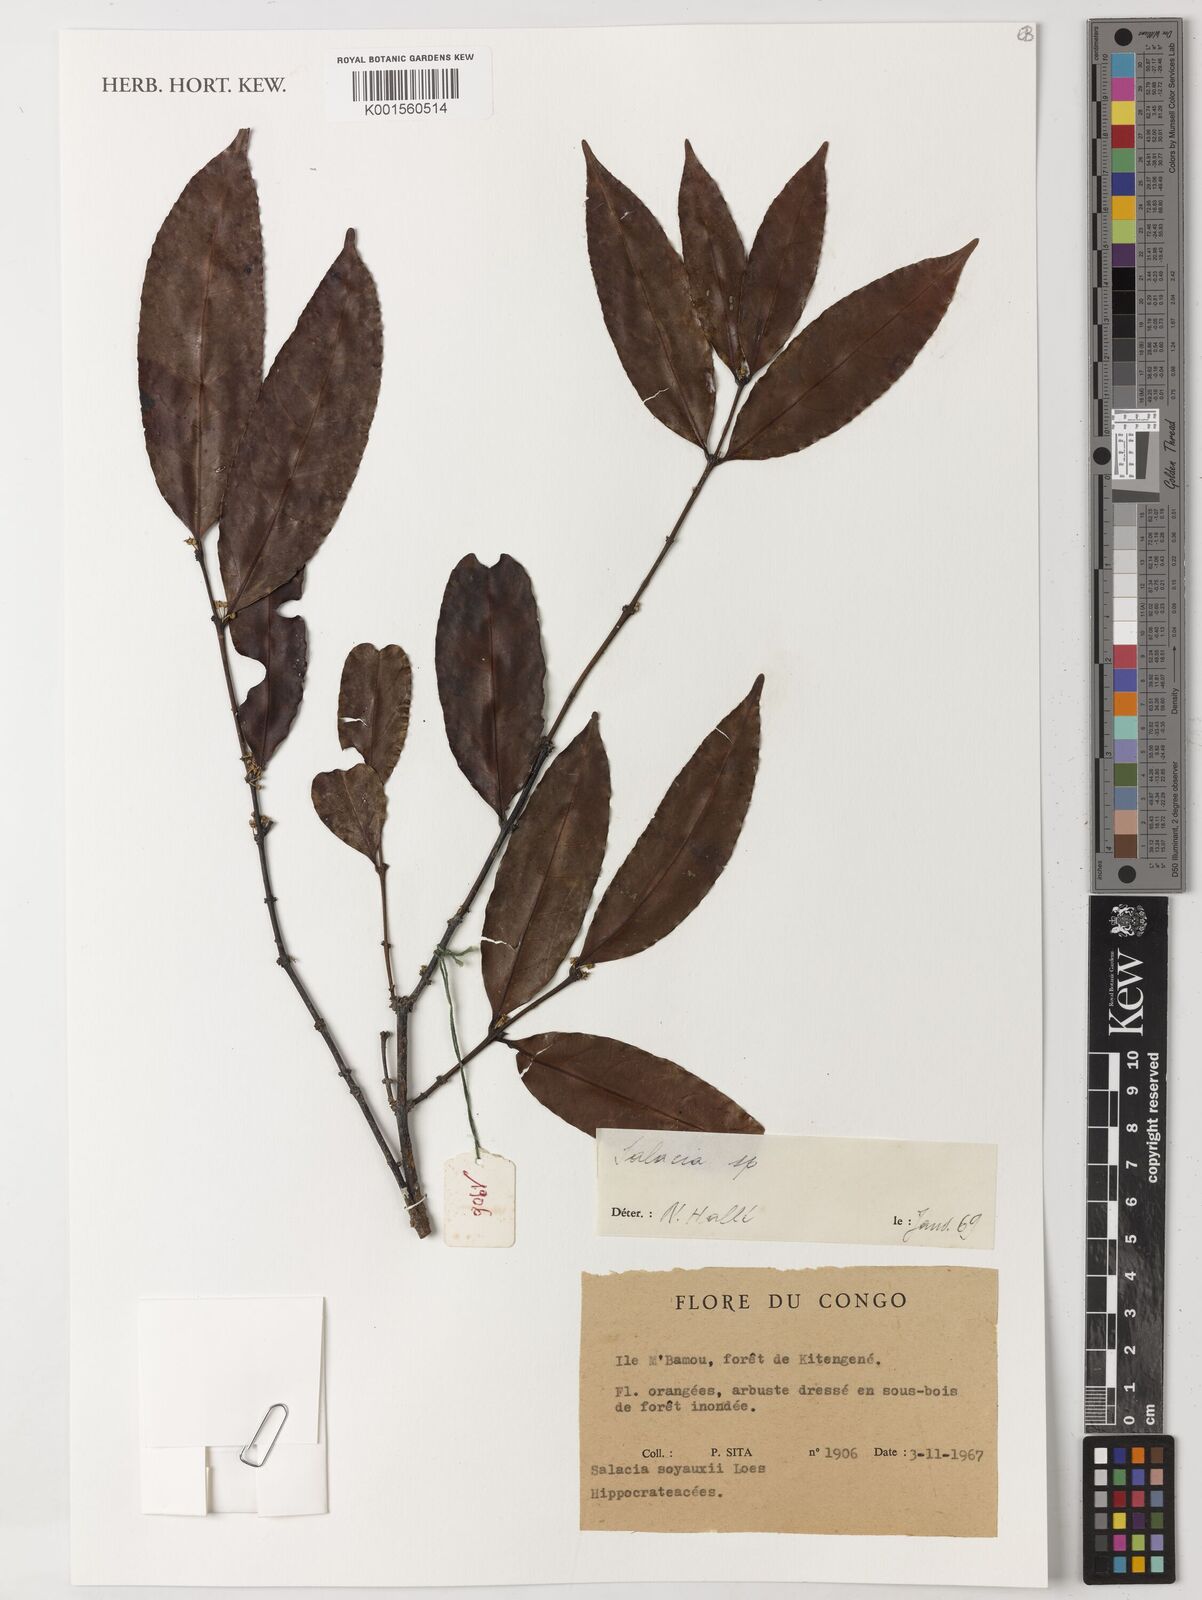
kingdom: Plantae
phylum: Tracheophyta
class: Magnoliopsida
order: Celastrales
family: Celastraceae
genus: Salacia
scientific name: Salacia mannii
